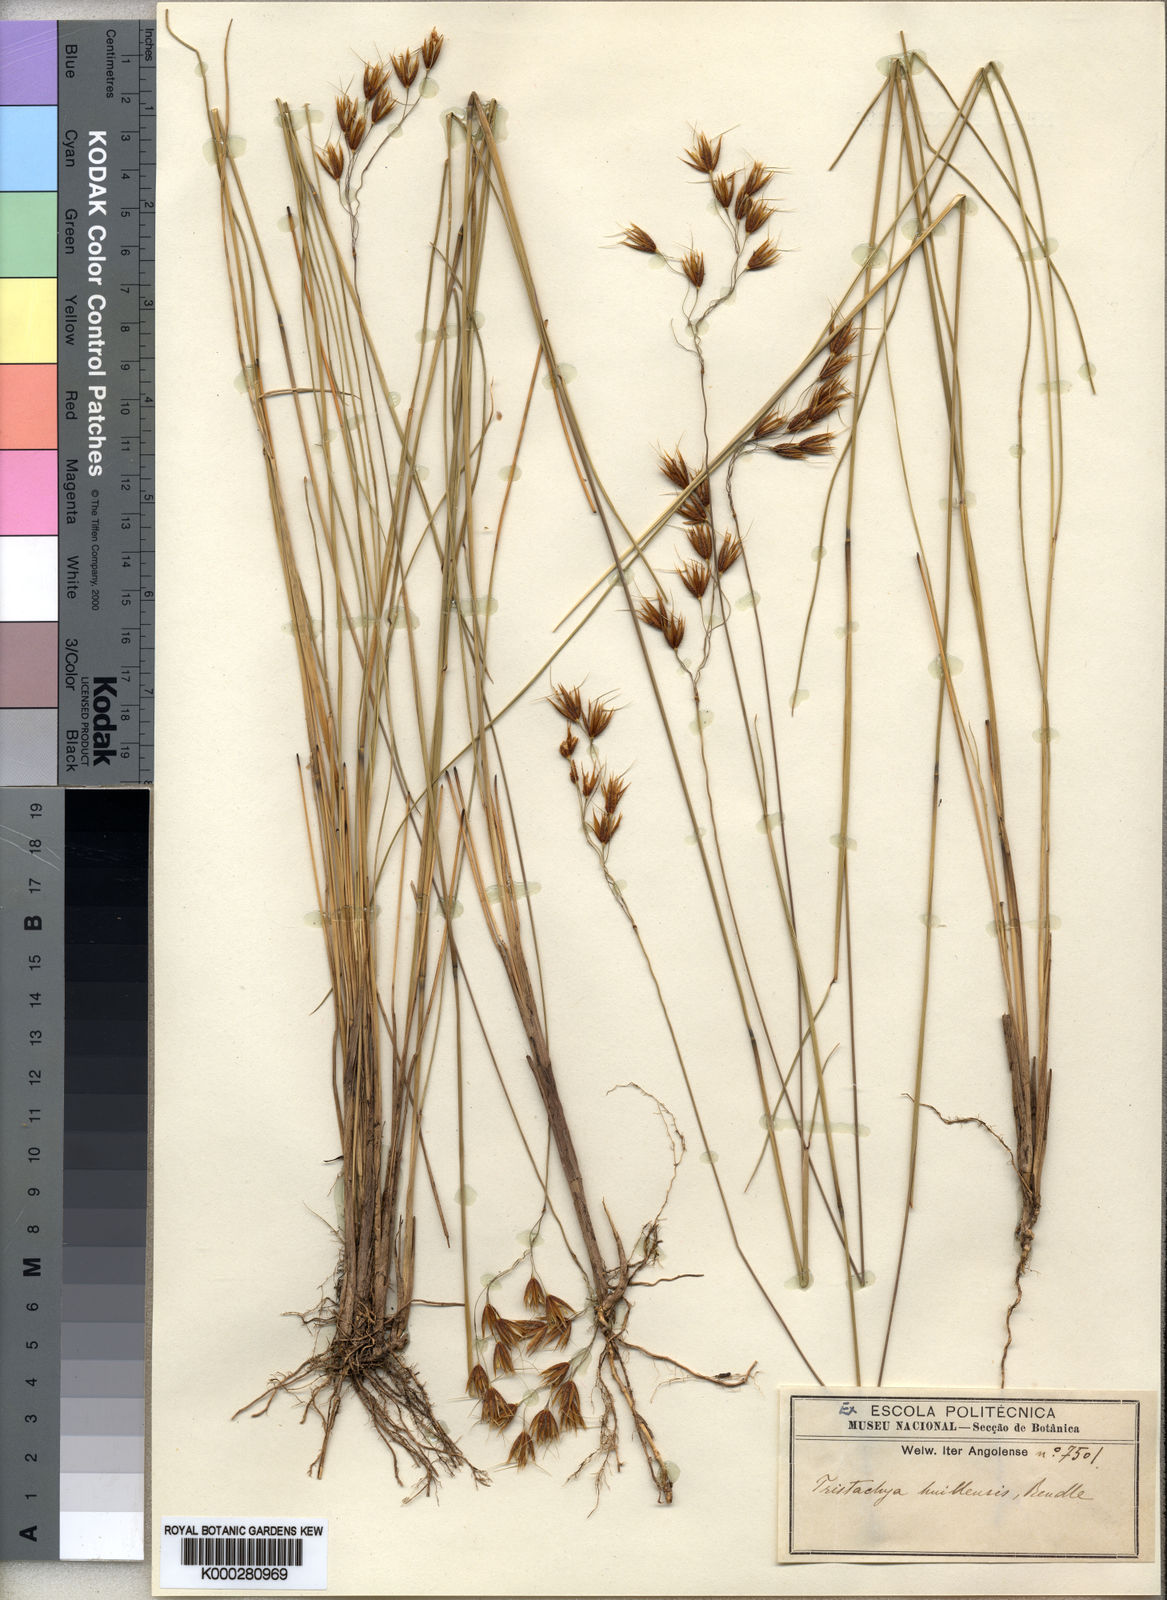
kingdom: Plantae
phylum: Tracheophyta
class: Liliopsida
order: Poales
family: Poaceae
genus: Tristachya
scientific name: Tristachya huillensis
